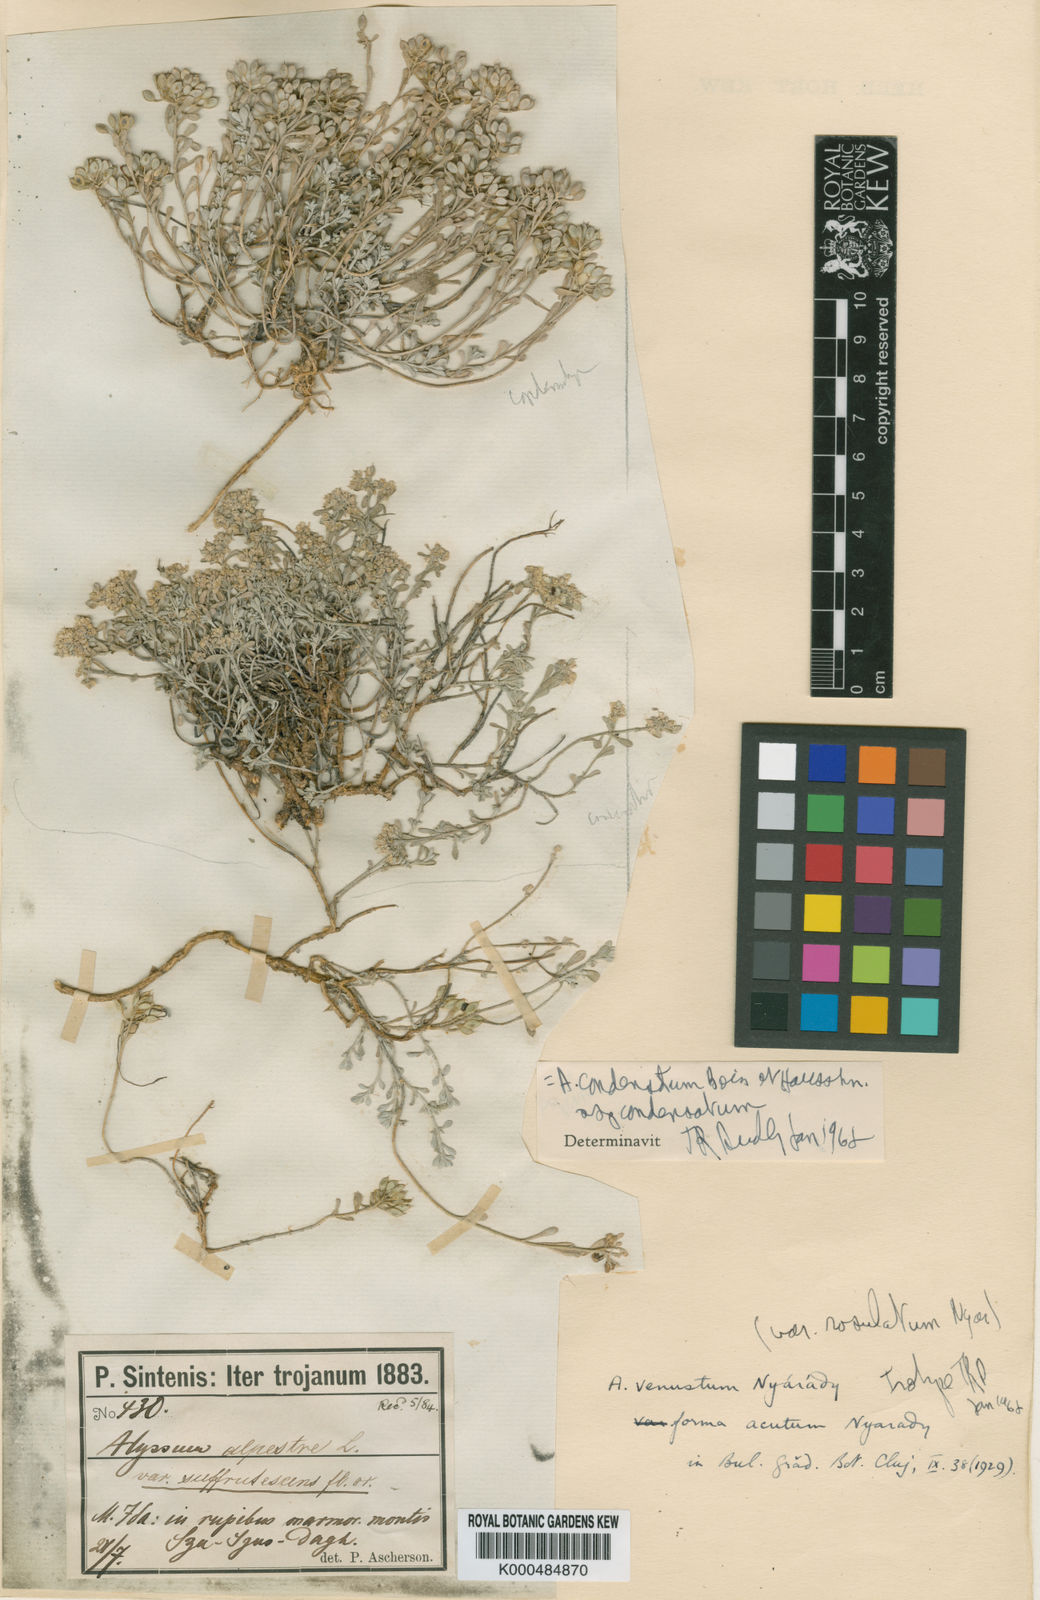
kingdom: Plantae
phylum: Tracheophyta
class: Magnoliopsida
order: Brassicales
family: Brassicaceae
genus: Odontarrhena
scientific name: Odontarrhena condensata
